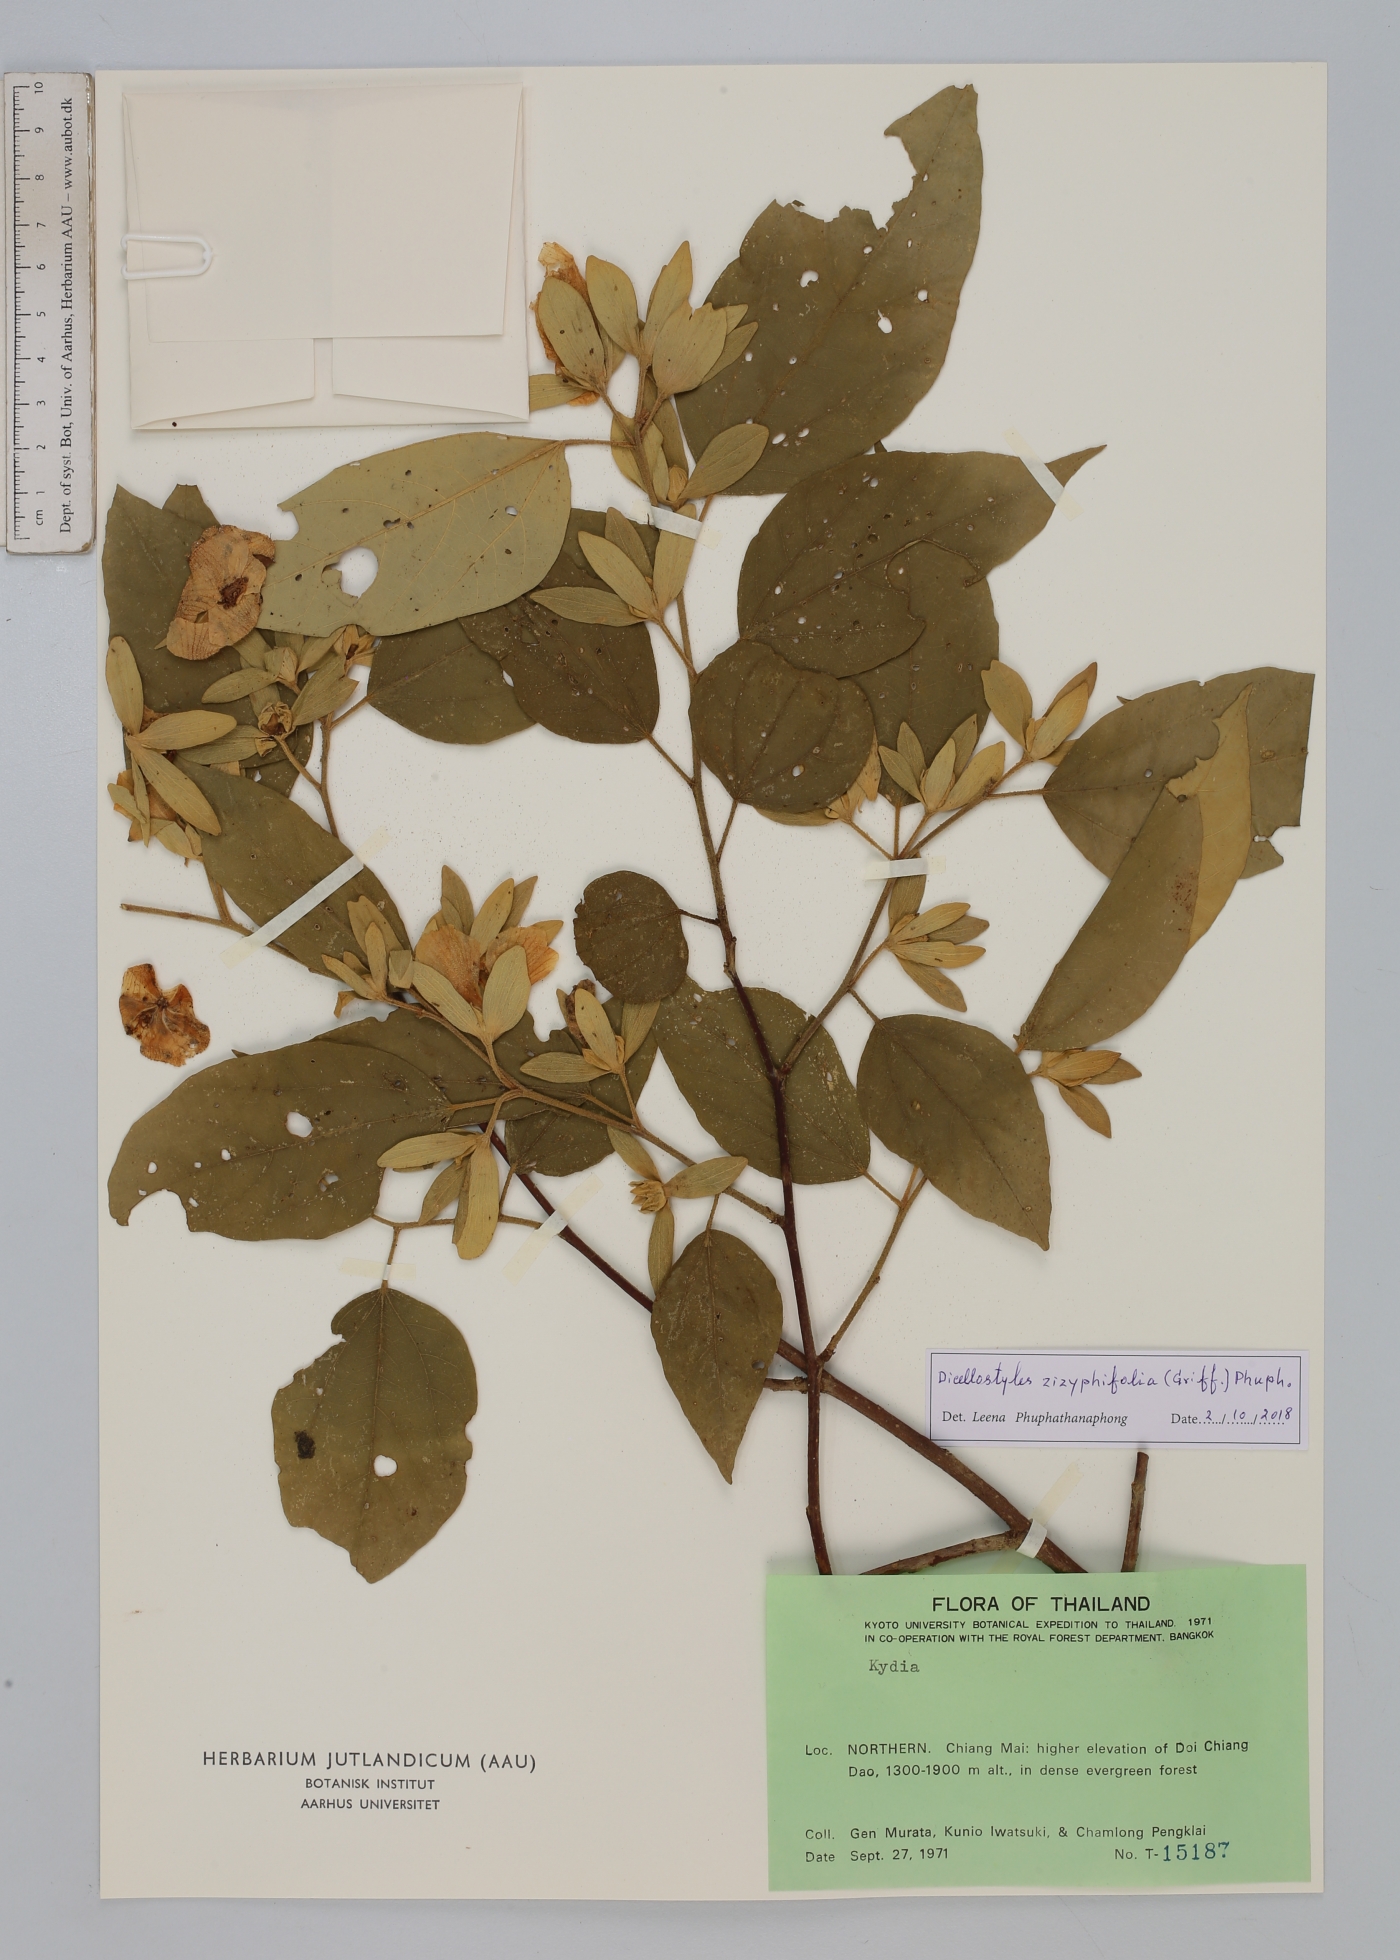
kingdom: Plantae
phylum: Tracheophyta
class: Magnoliopsida
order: Malvales
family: Malvaceae
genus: Dicellostyles
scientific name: Dicellostyles zizyphifolia
